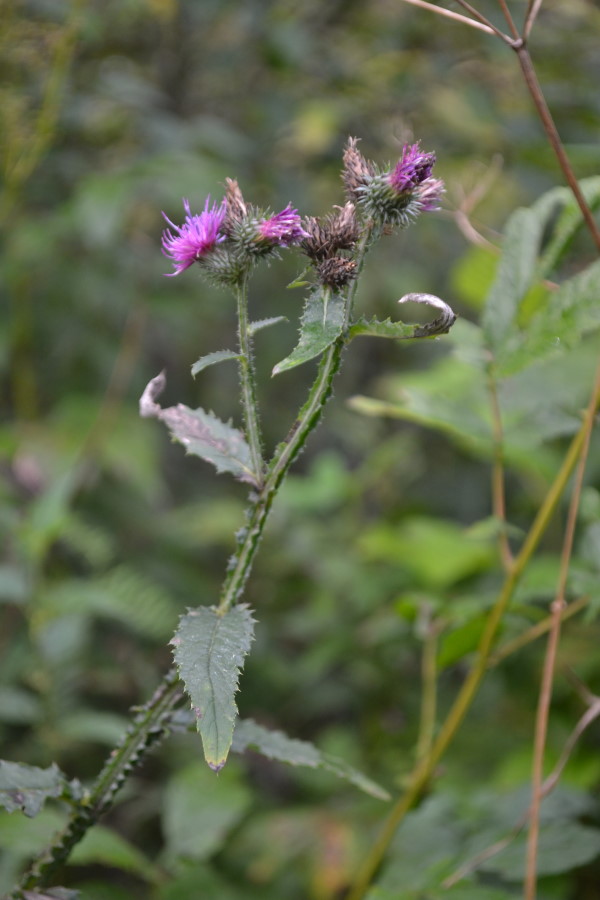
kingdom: Plantae
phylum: Tracheophyta
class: Magnoliopsida
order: Asterales
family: Asteraceae
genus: Carduus
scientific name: Carduus crispus
